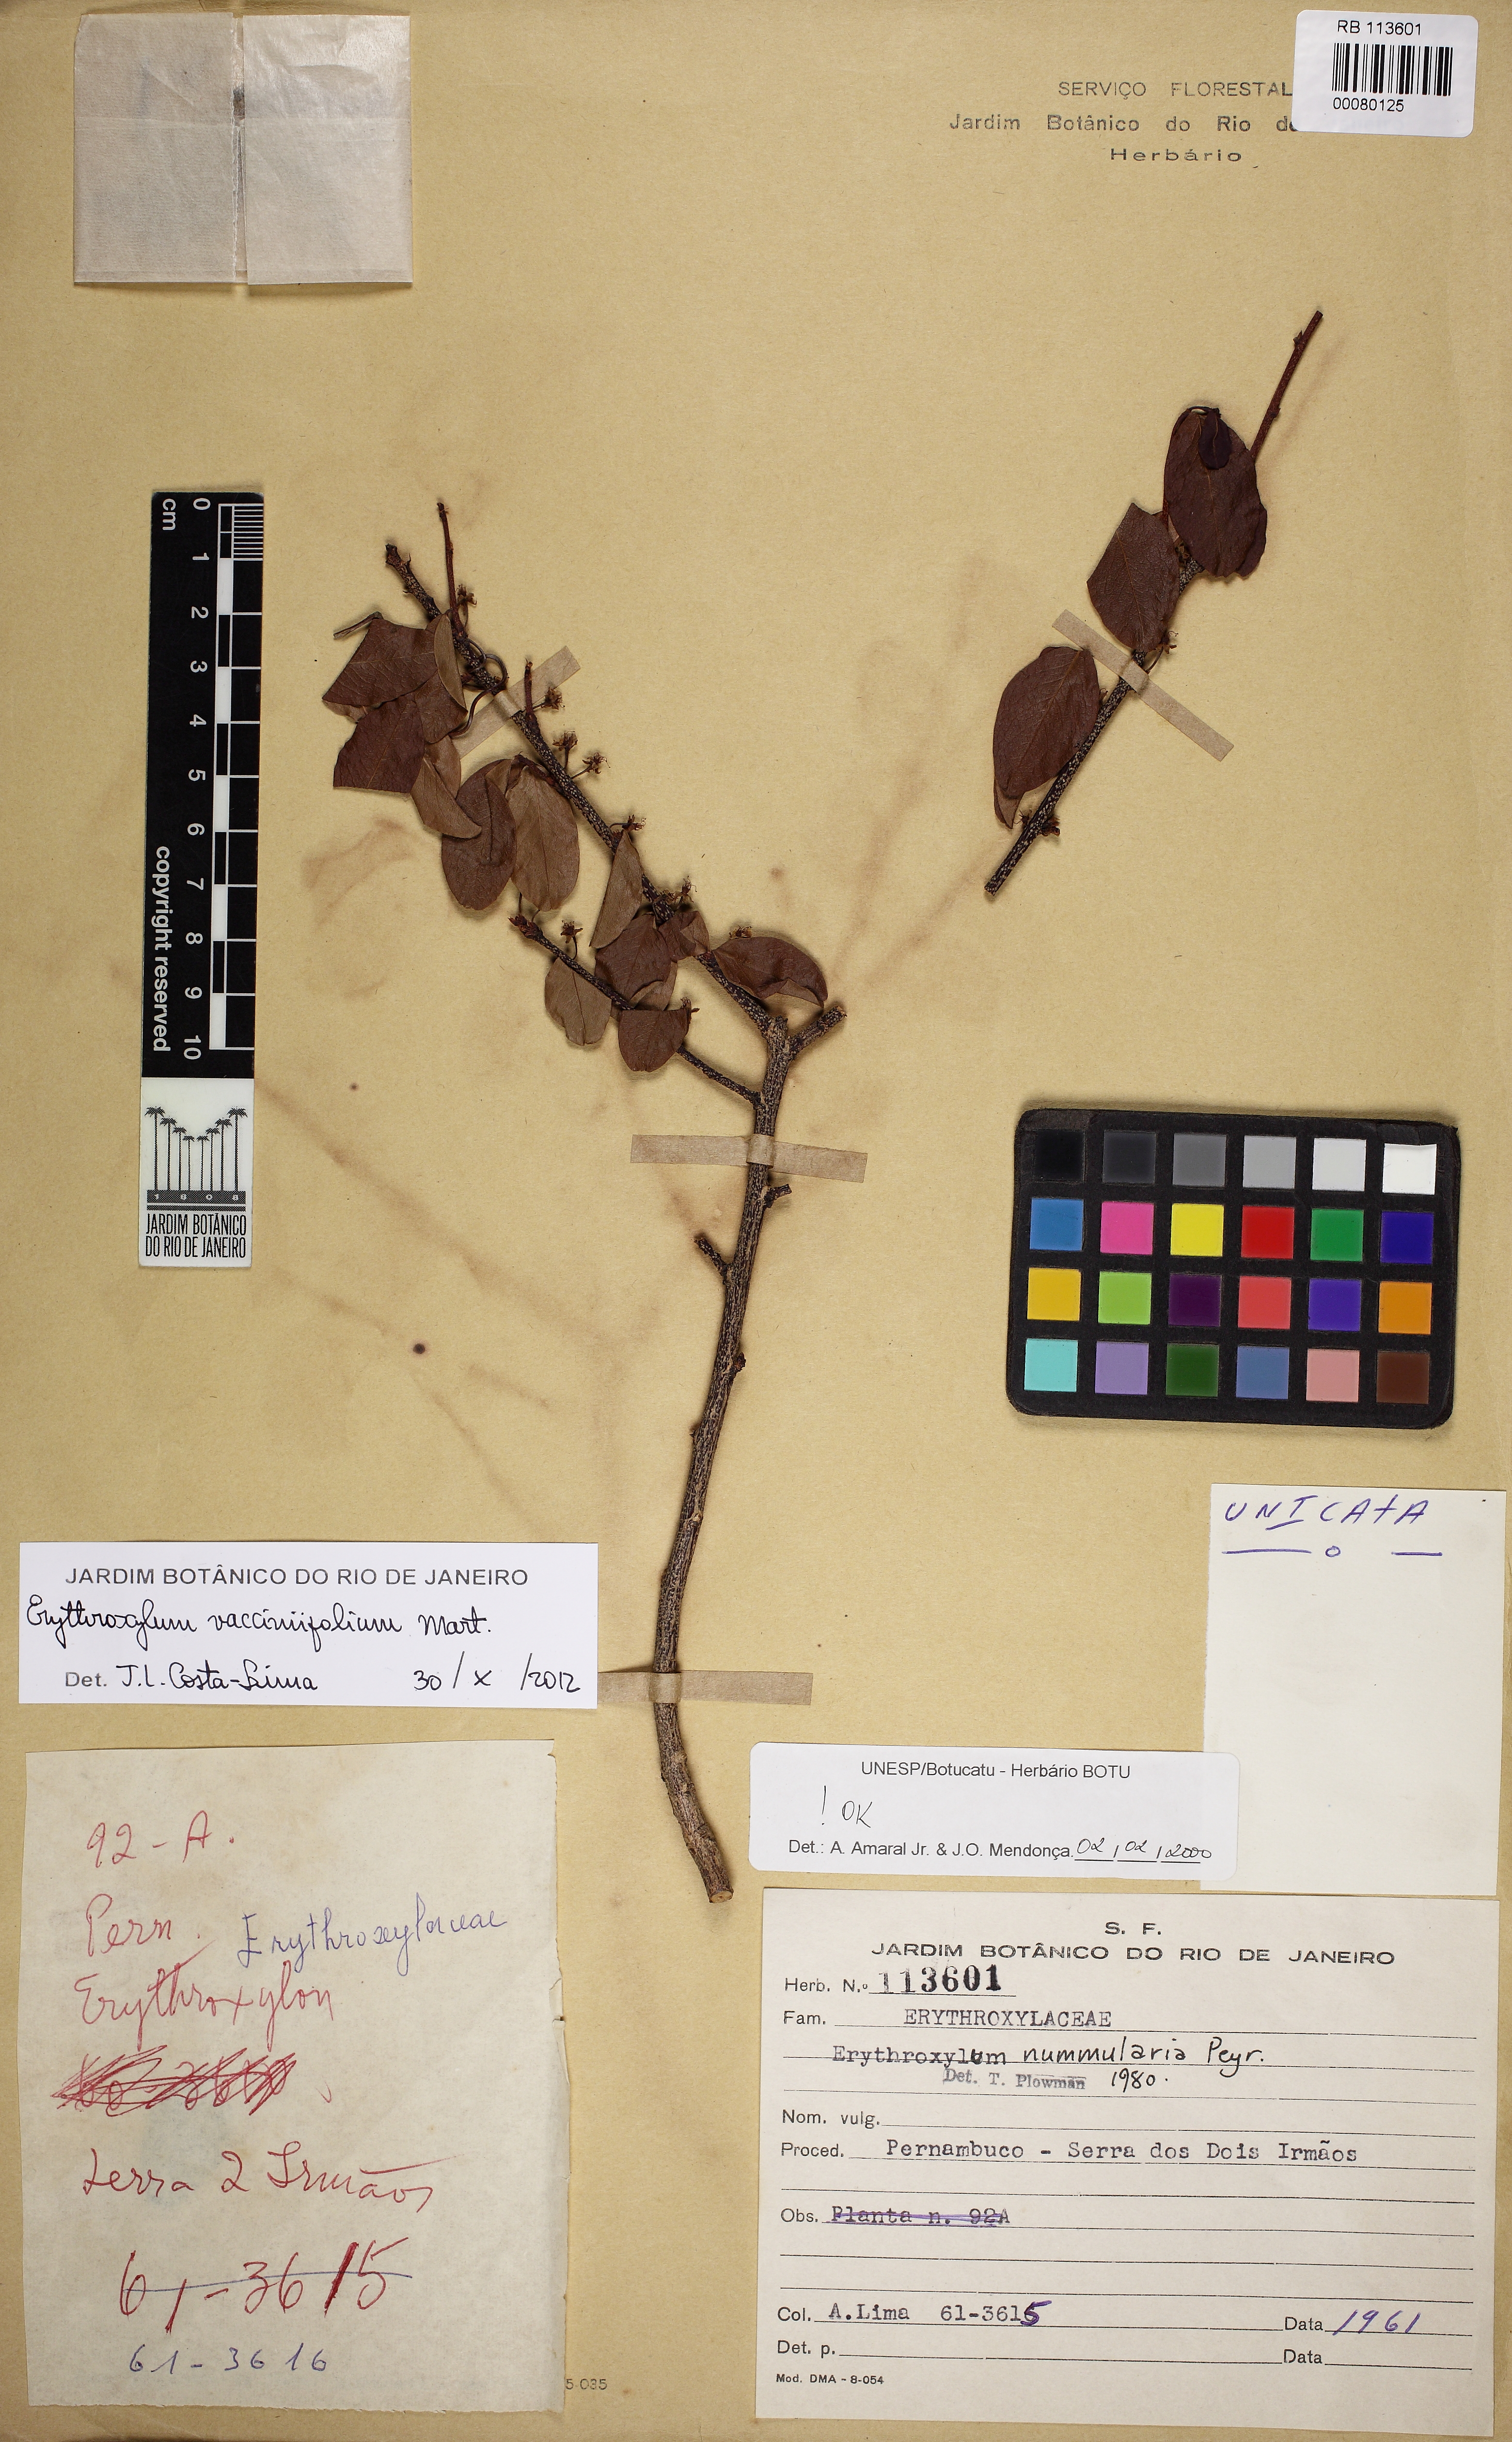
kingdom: Plantae
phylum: Tracheophyta
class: Magnoliopsida
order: Malpighiales
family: Erythroxylaceae
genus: Erythroxylum
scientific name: Erythroxylum vaccinifolium
